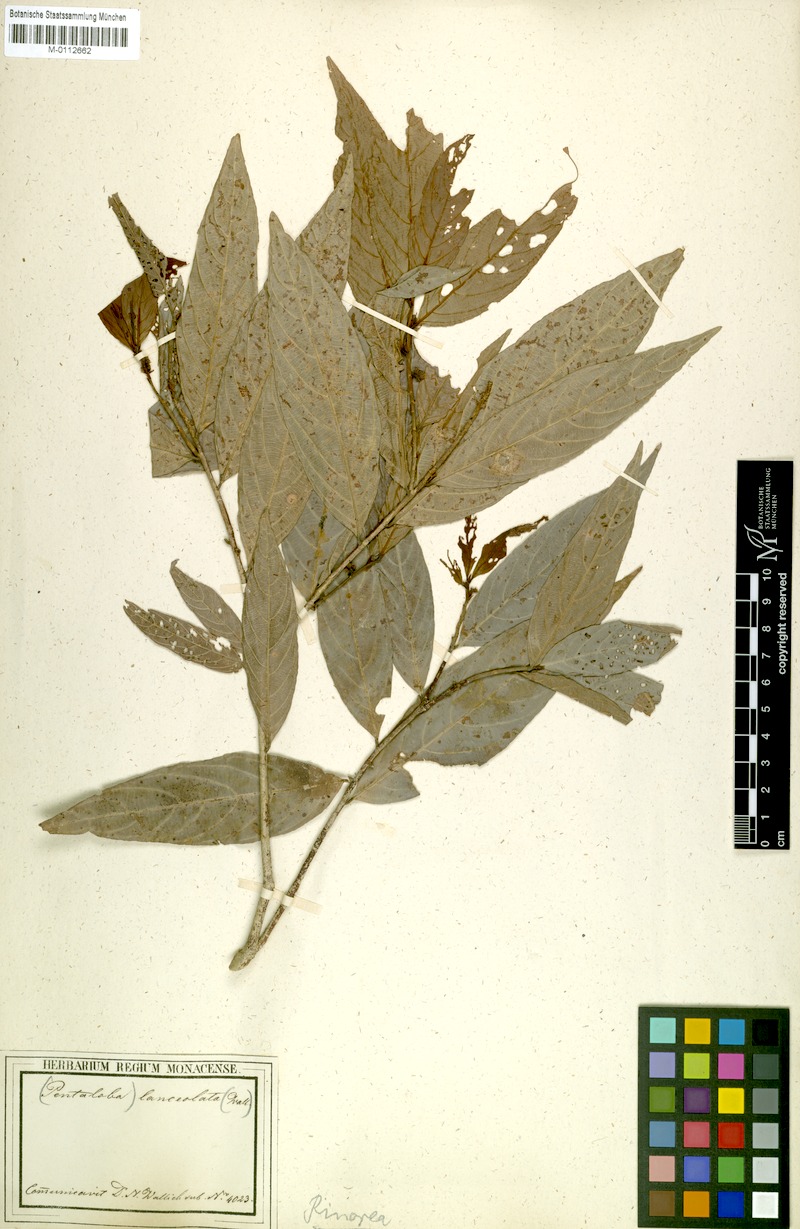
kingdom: Plantae
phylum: Tracheophyta
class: Magnoliopsida
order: Malpighiales
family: Violaceae
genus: Rinorea
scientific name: Rinorea lanceolata
